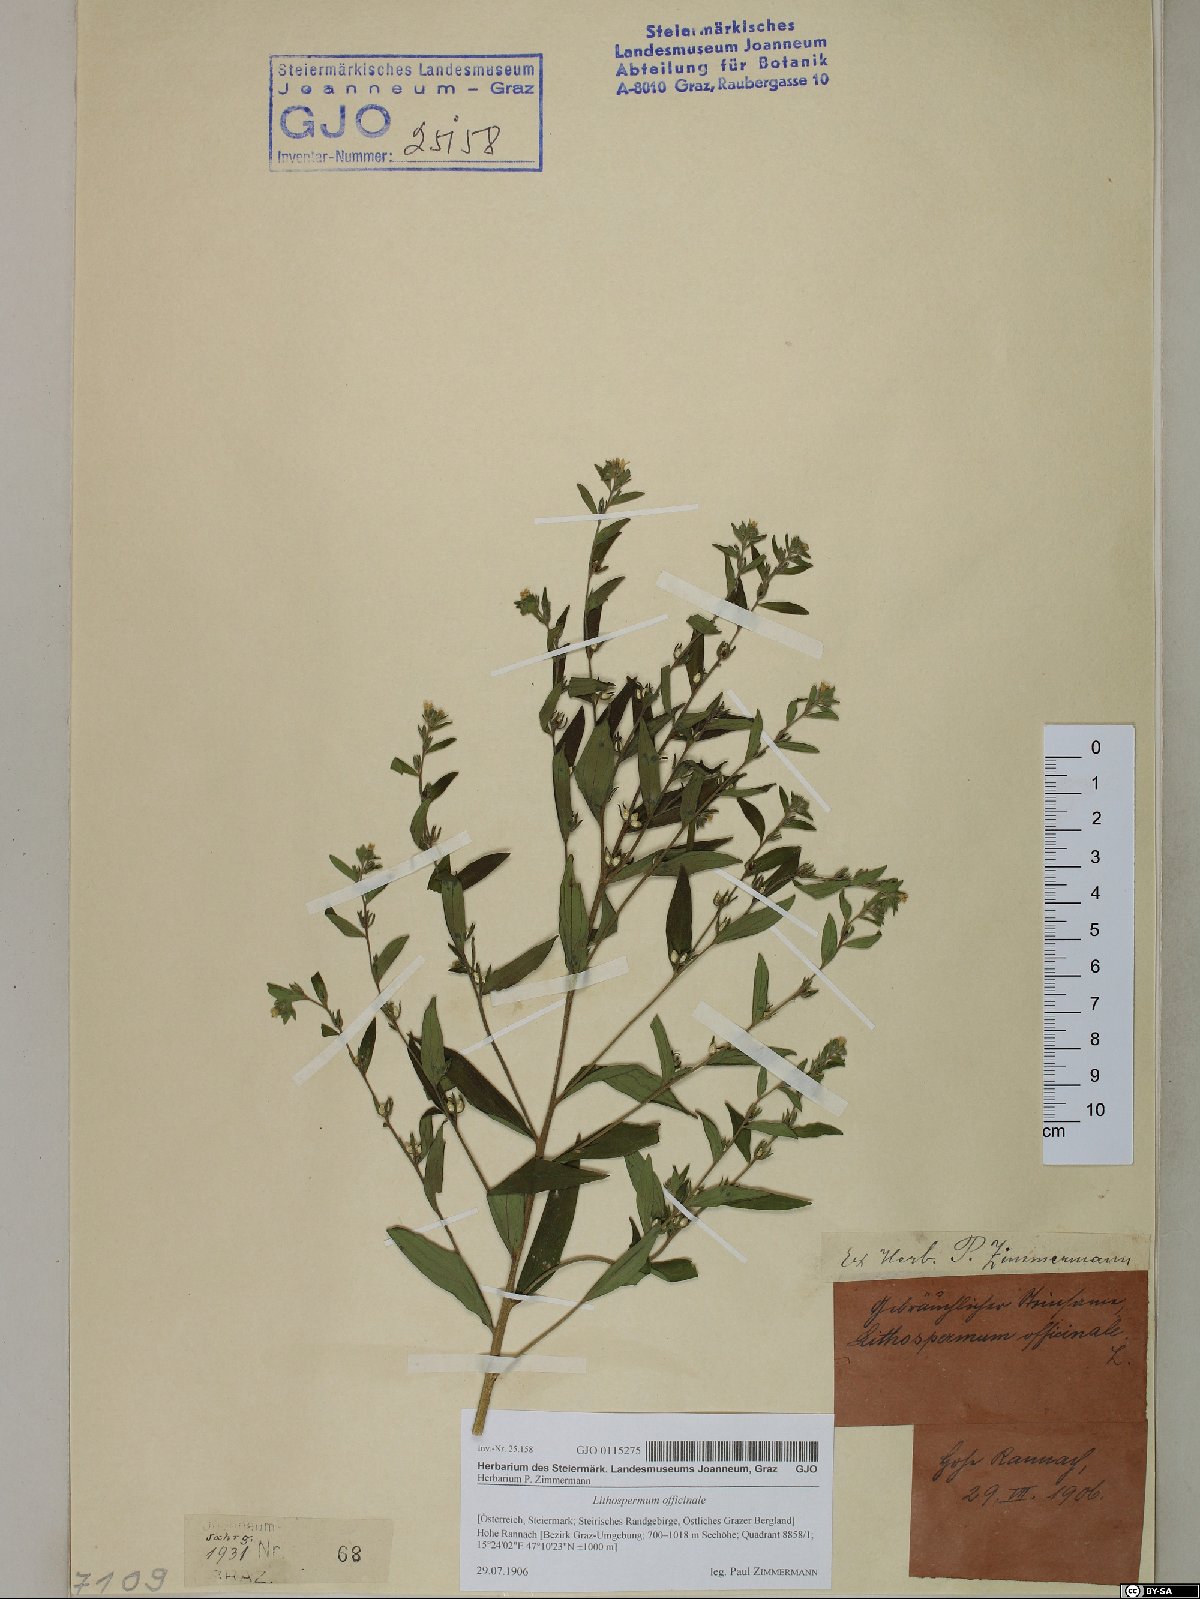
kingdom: Plantae
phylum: Tracheophyta
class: Magnoliopsida
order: Boraginales
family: Boraginaceae
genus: Lithospermum
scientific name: Lithospermum officinale
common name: Common gromwell
